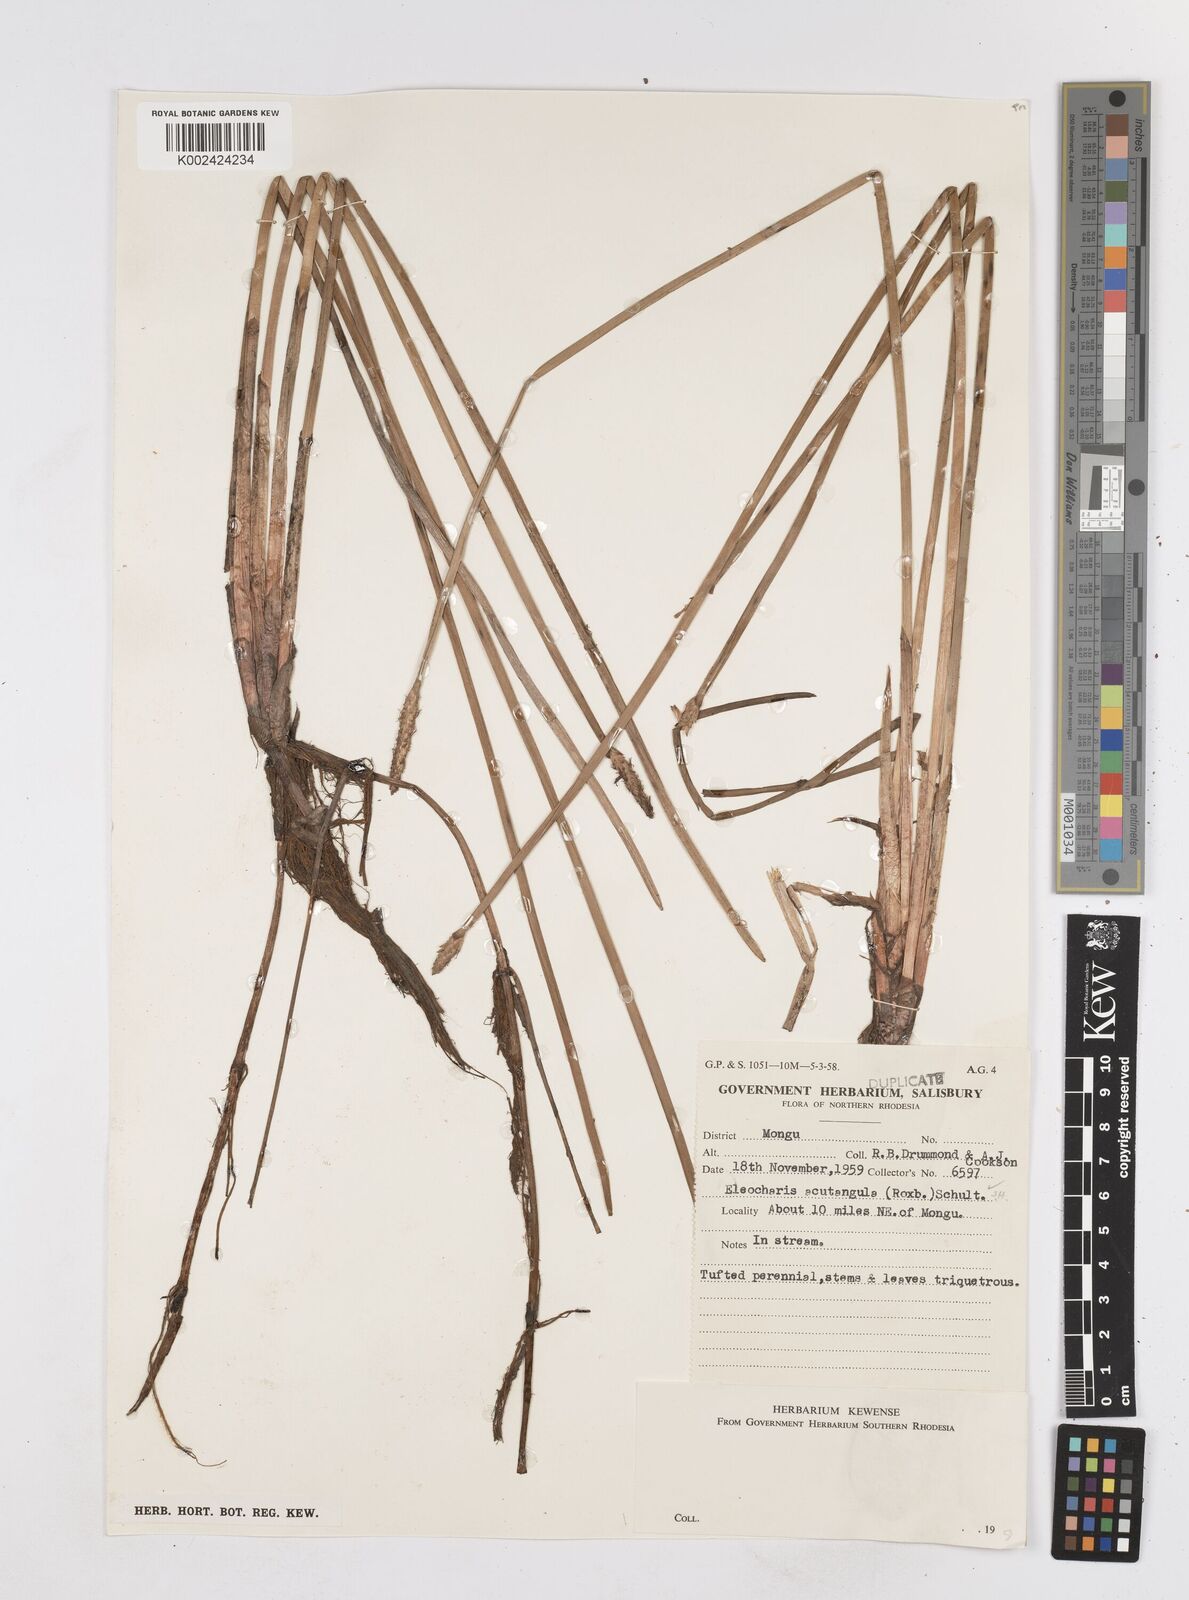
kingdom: Plantae
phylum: Tracheophyta
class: Liliopsida
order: Poales
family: Cyperaceae
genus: Eleocharis
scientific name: Eleocharis acutangula
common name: Acute spikerush
